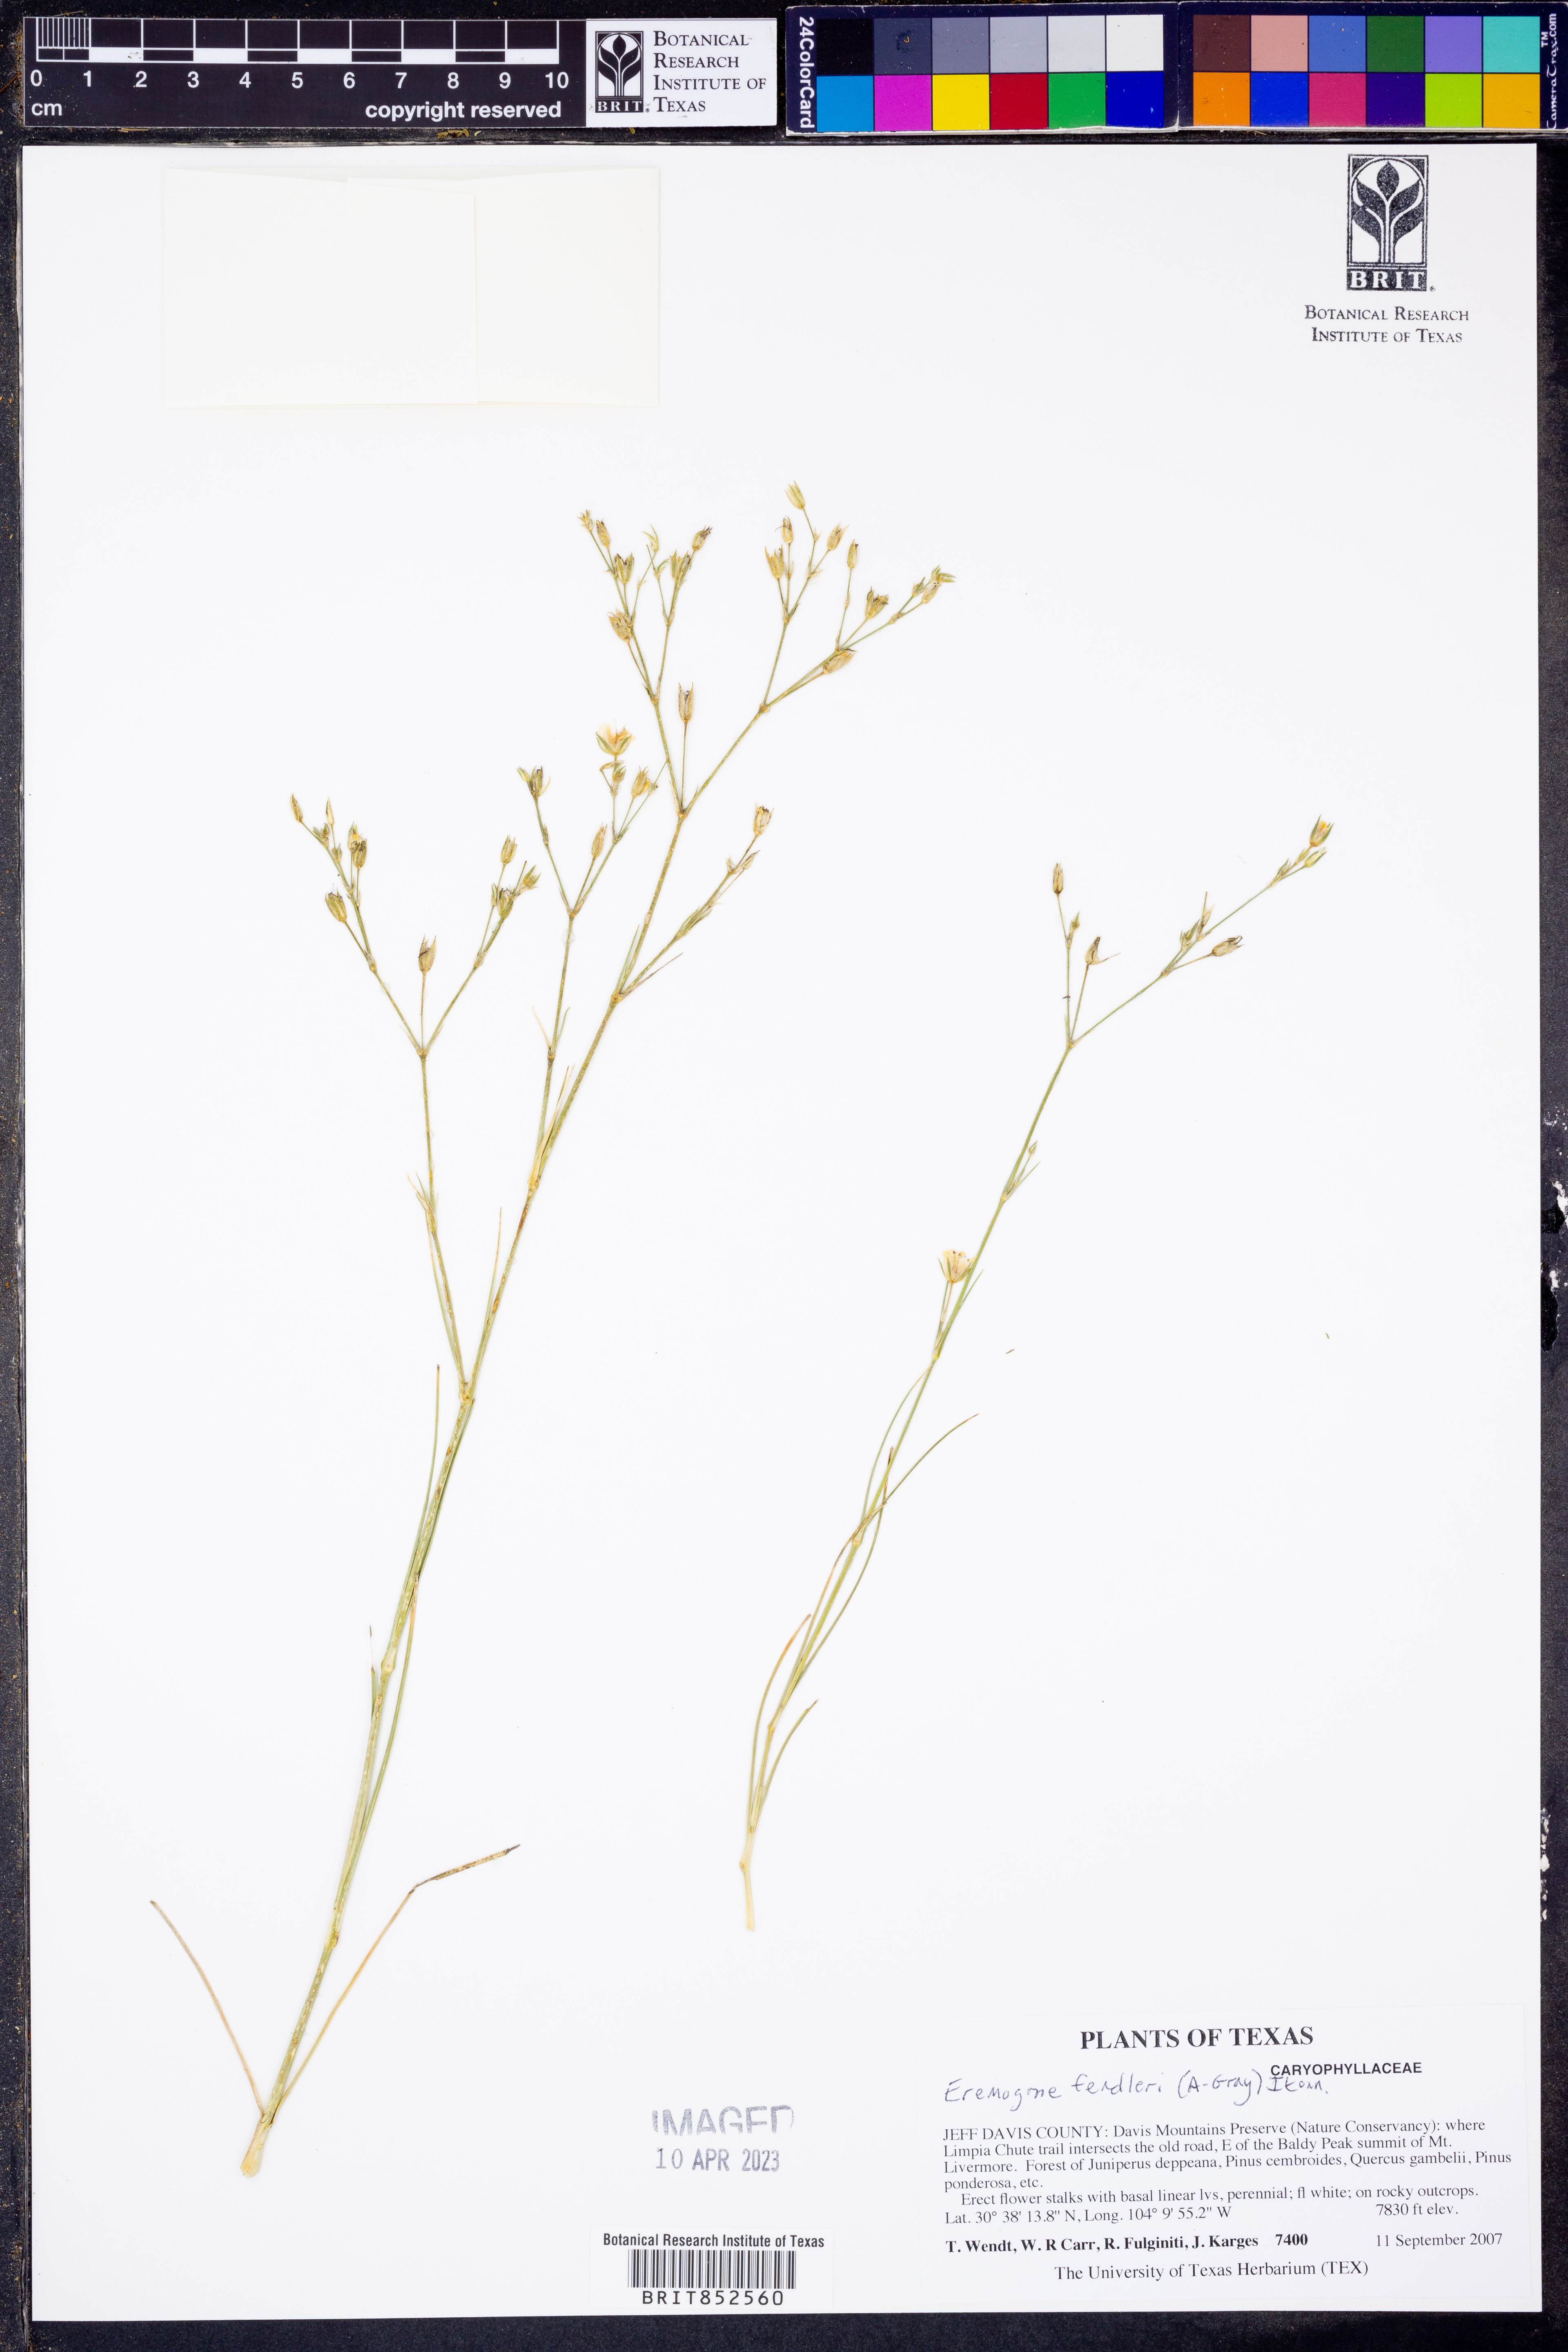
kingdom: Plantae
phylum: Tracheophyta
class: Magnoliopsida
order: Caryophyllales
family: Caryophyllaceae
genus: Eremogone
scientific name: Eremogone fendleri
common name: Fendler's sandwort
